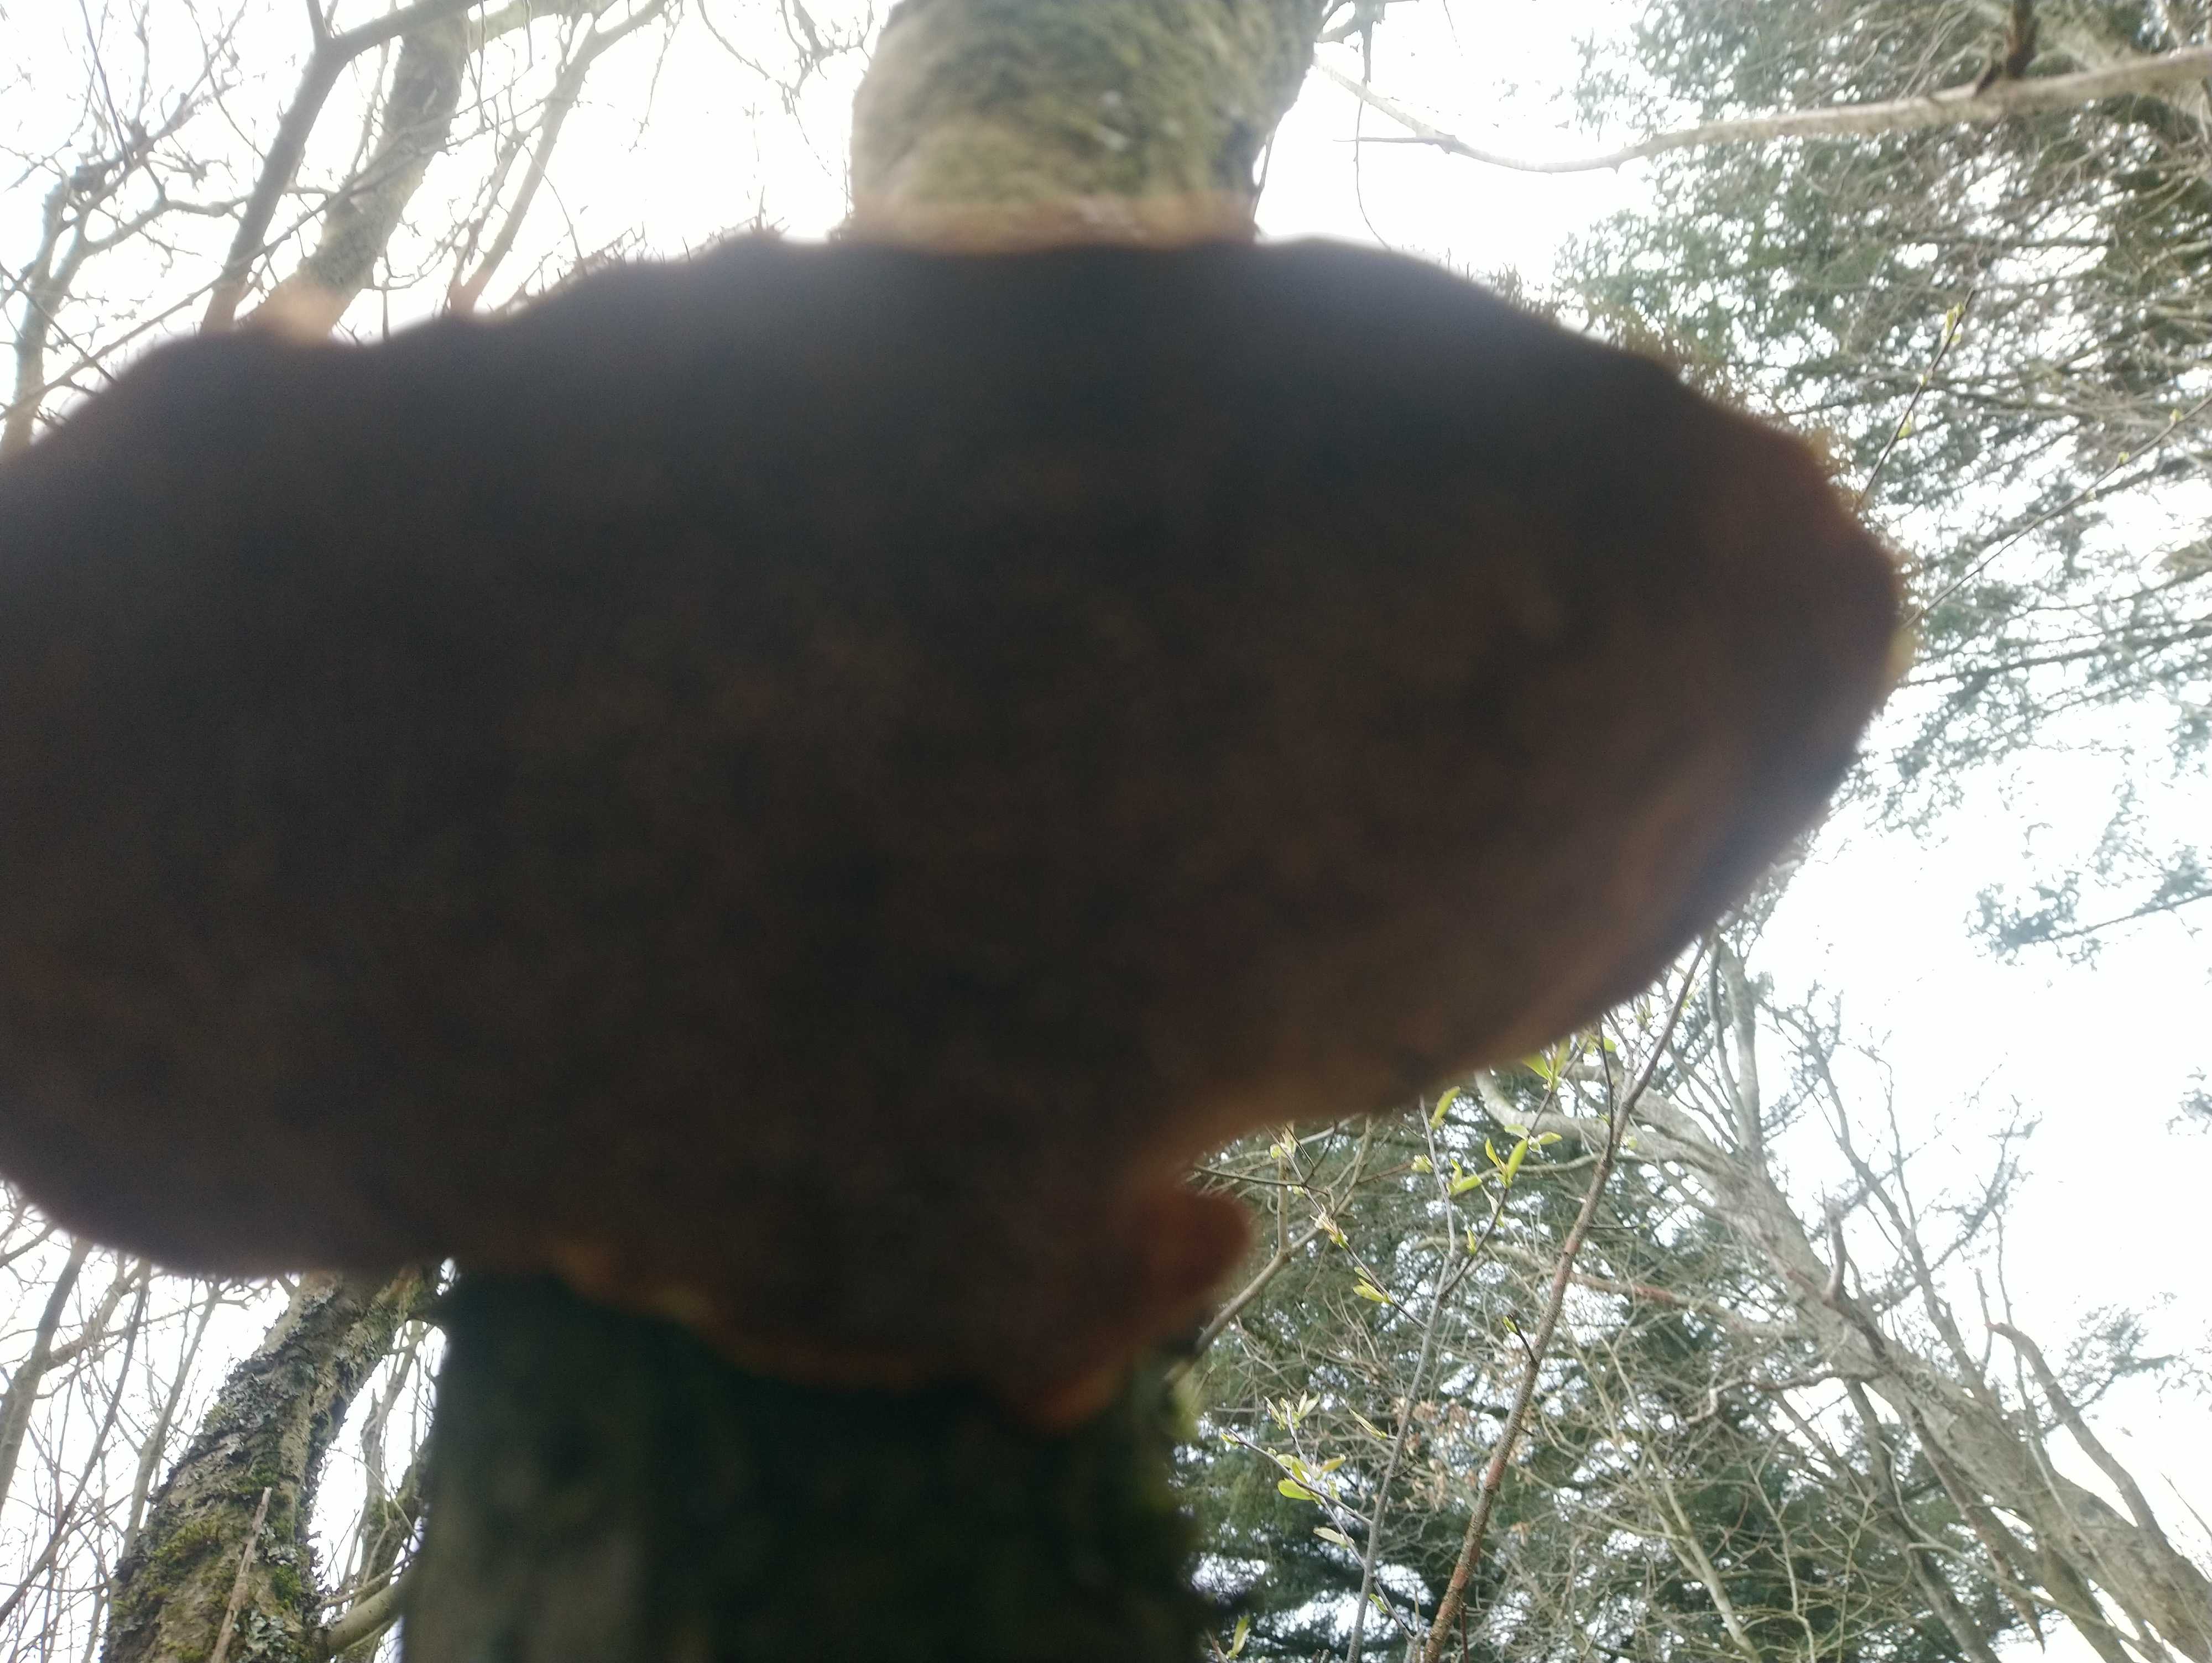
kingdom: Fungi
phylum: Basidiomycota
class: Agaricomycetes
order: Polyporales
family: Polyporaceae
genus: Daedaleopsis
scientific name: Daedaleopsis confragosa
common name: rødmende læderporesvamp
